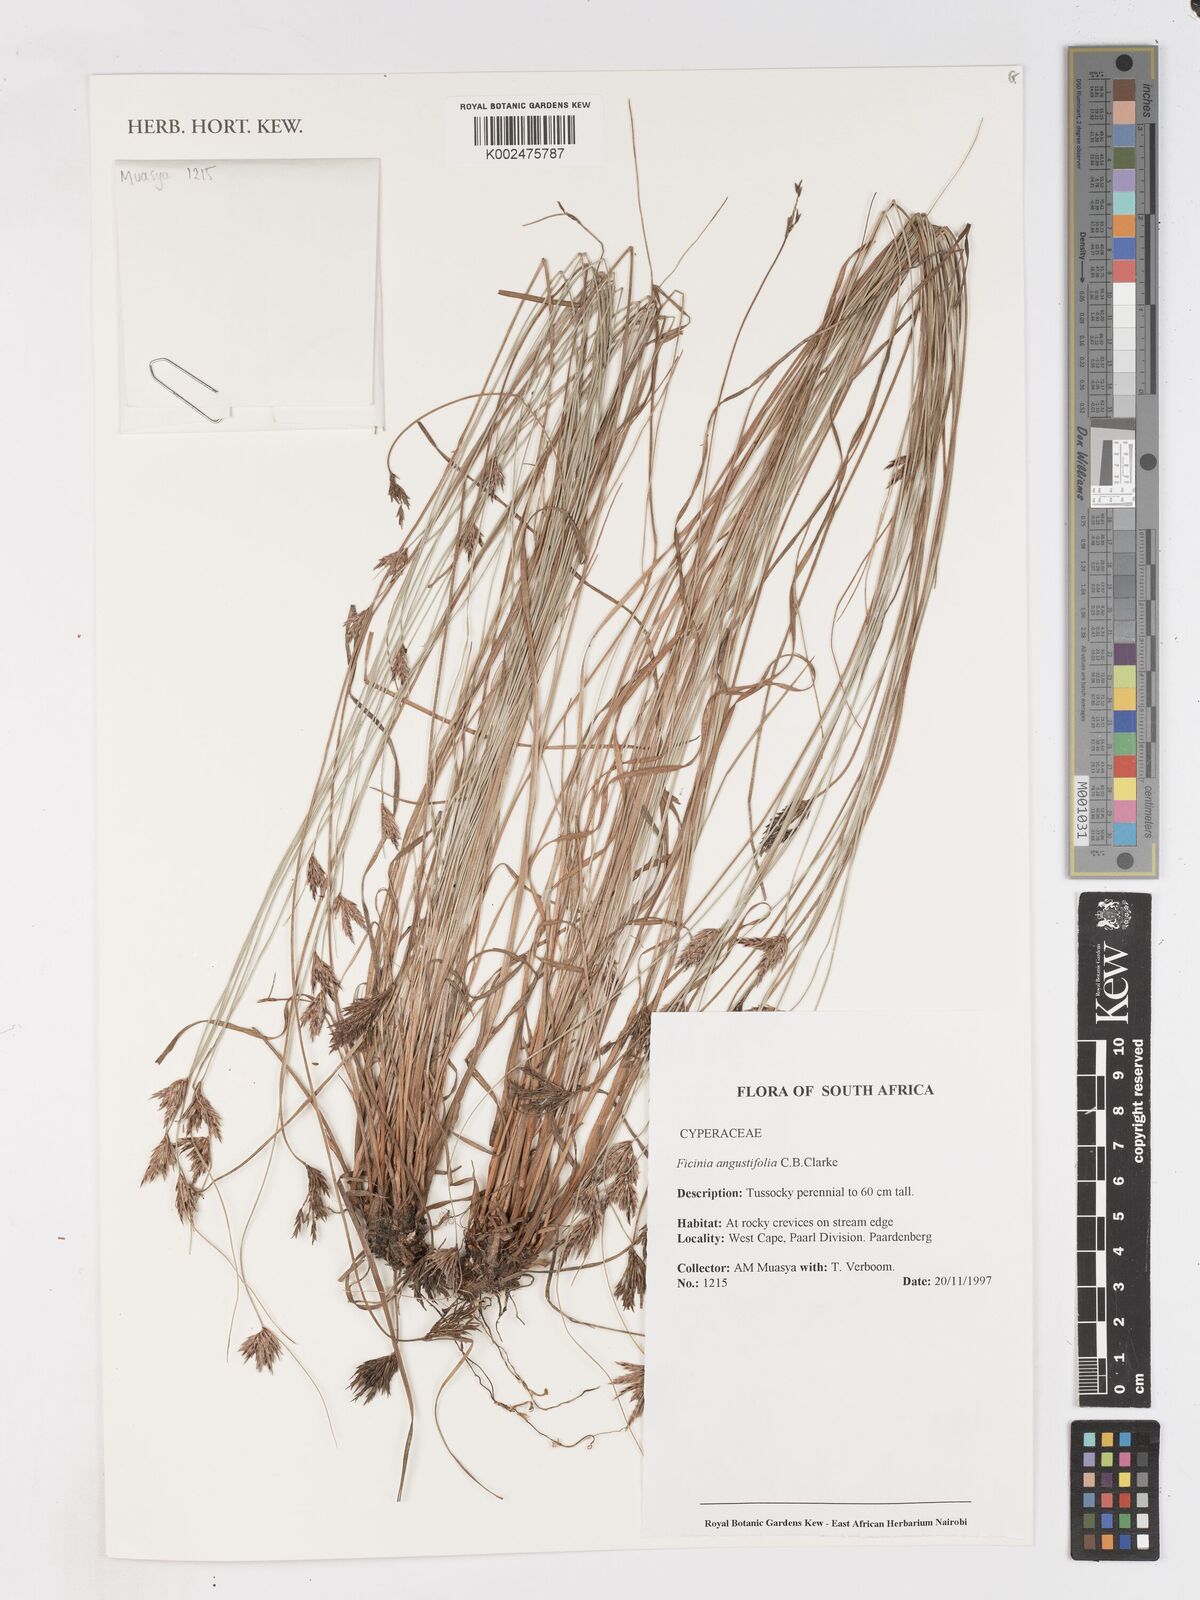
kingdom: Plantae
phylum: Tracheophyta
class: Liliopsida
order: Poales
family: Cyperaceae
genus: Ficinia
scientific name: Ficinia angustifolia
